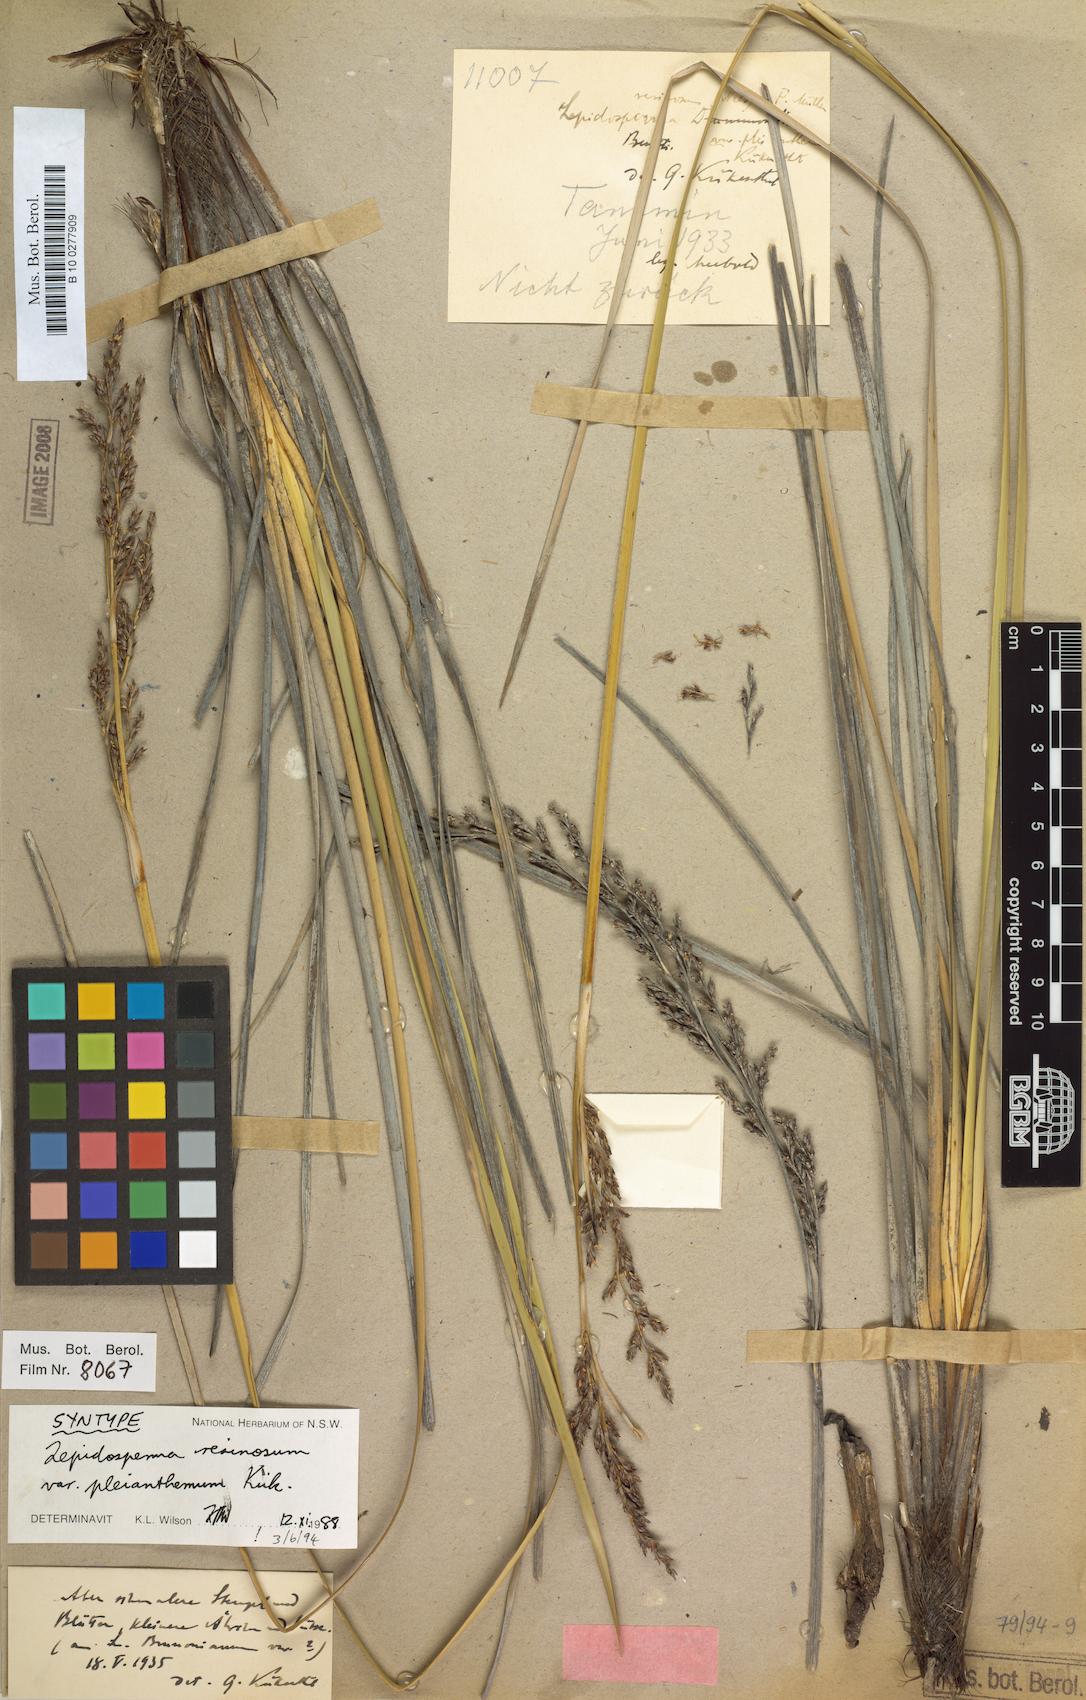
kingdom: Plantae
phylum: Tracheophyta
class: Liliopsida
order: Poales
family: Cyperaceae
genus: Lepidosperma
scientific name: Lepidosperma resinosum
